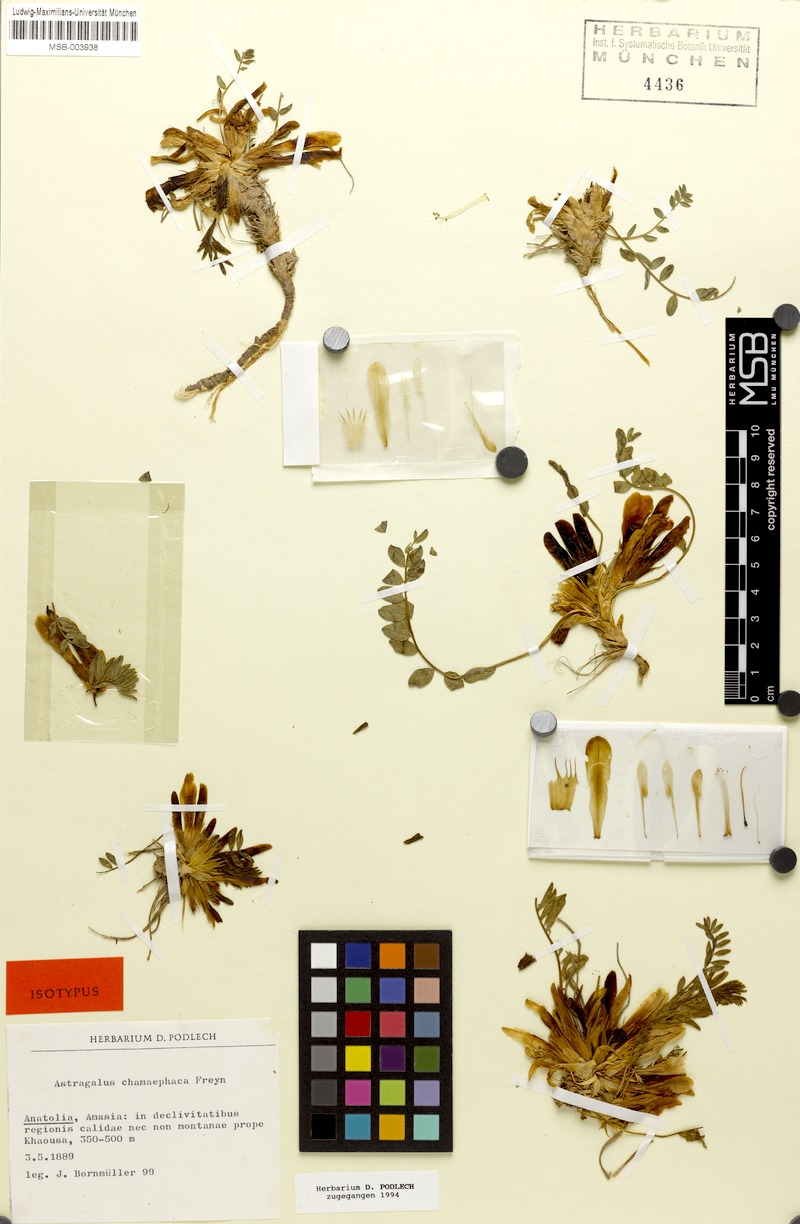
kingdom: Plantae
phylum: Tracheophyta
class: Magnoliopsida
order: Fabales
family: Fabaceae
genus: Astragalus
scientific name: Astragalus chamaephaca
